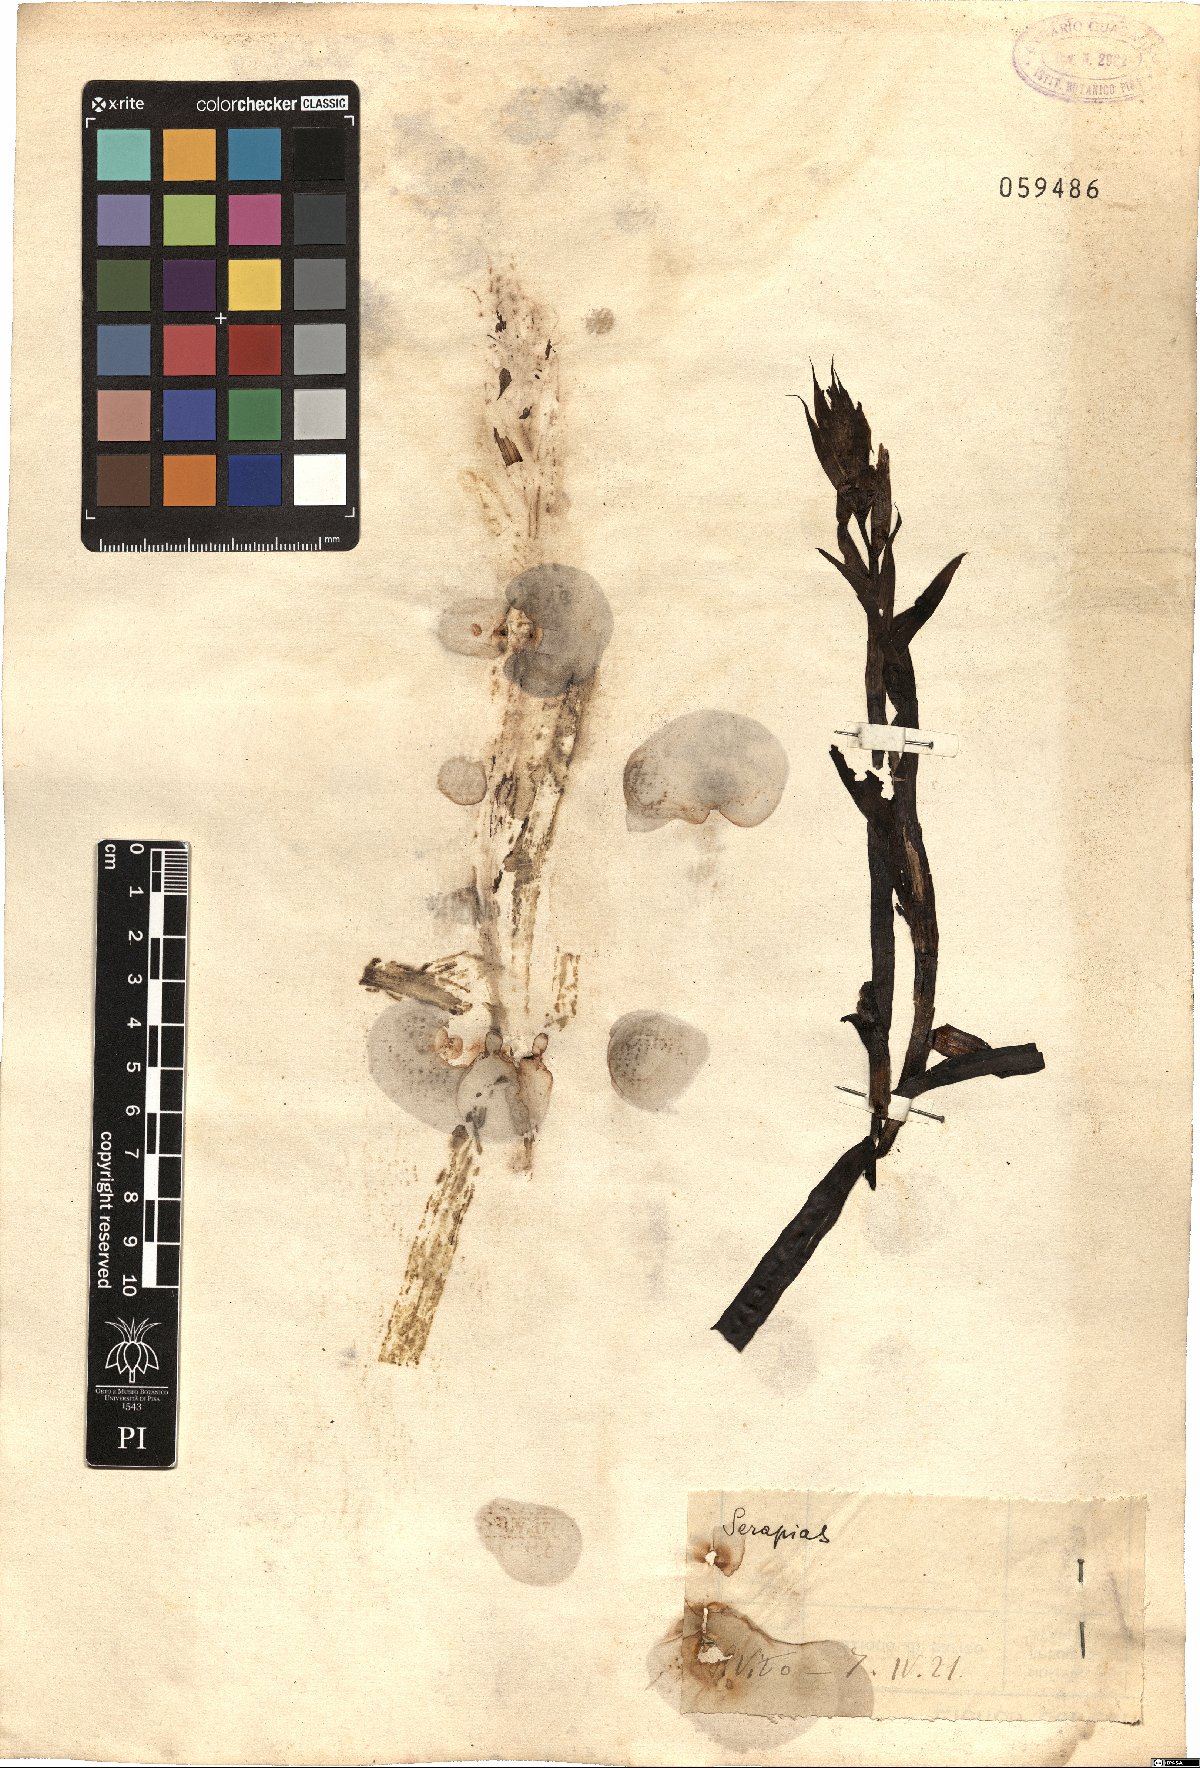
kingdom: Plantae
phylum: Tracheophyta
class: Liliopsida
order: Asparagales
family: Orchidaceae
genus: Serapias
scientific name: Serapias
